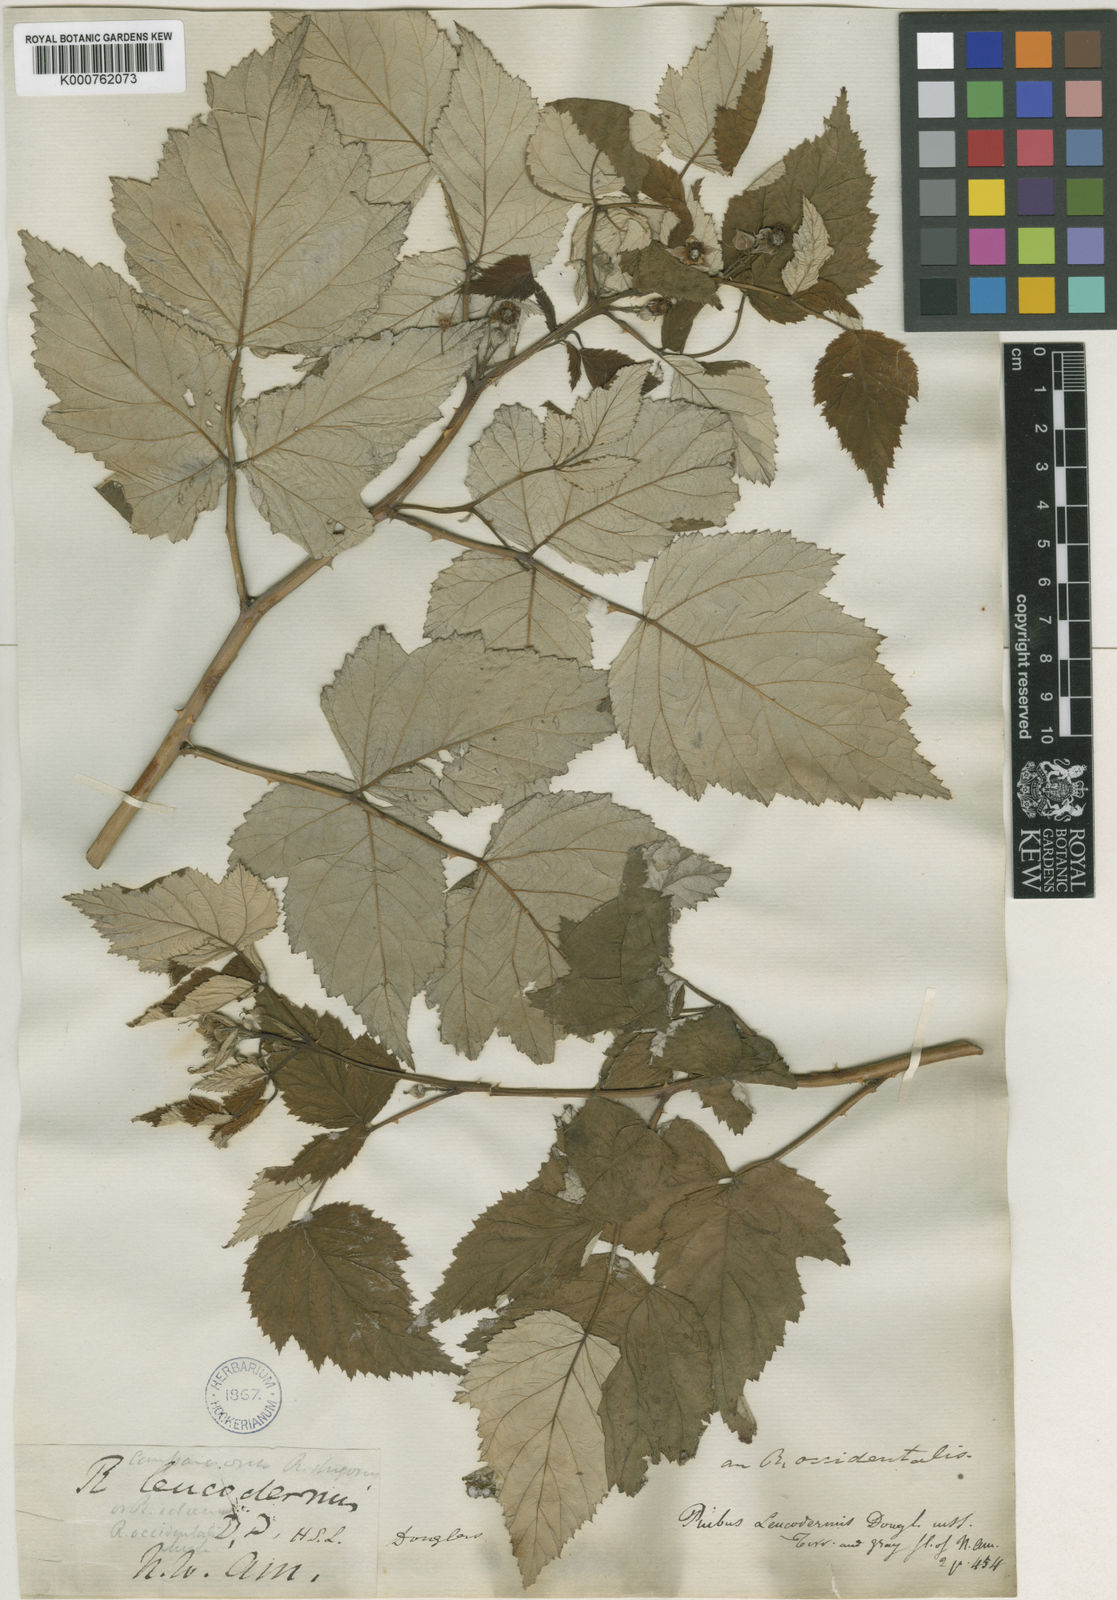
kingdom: Plantae
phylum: Tracheophyta
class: Magnoliopsida
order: Rosales
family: Rosaceae
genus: Rubus
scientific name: Rubus
